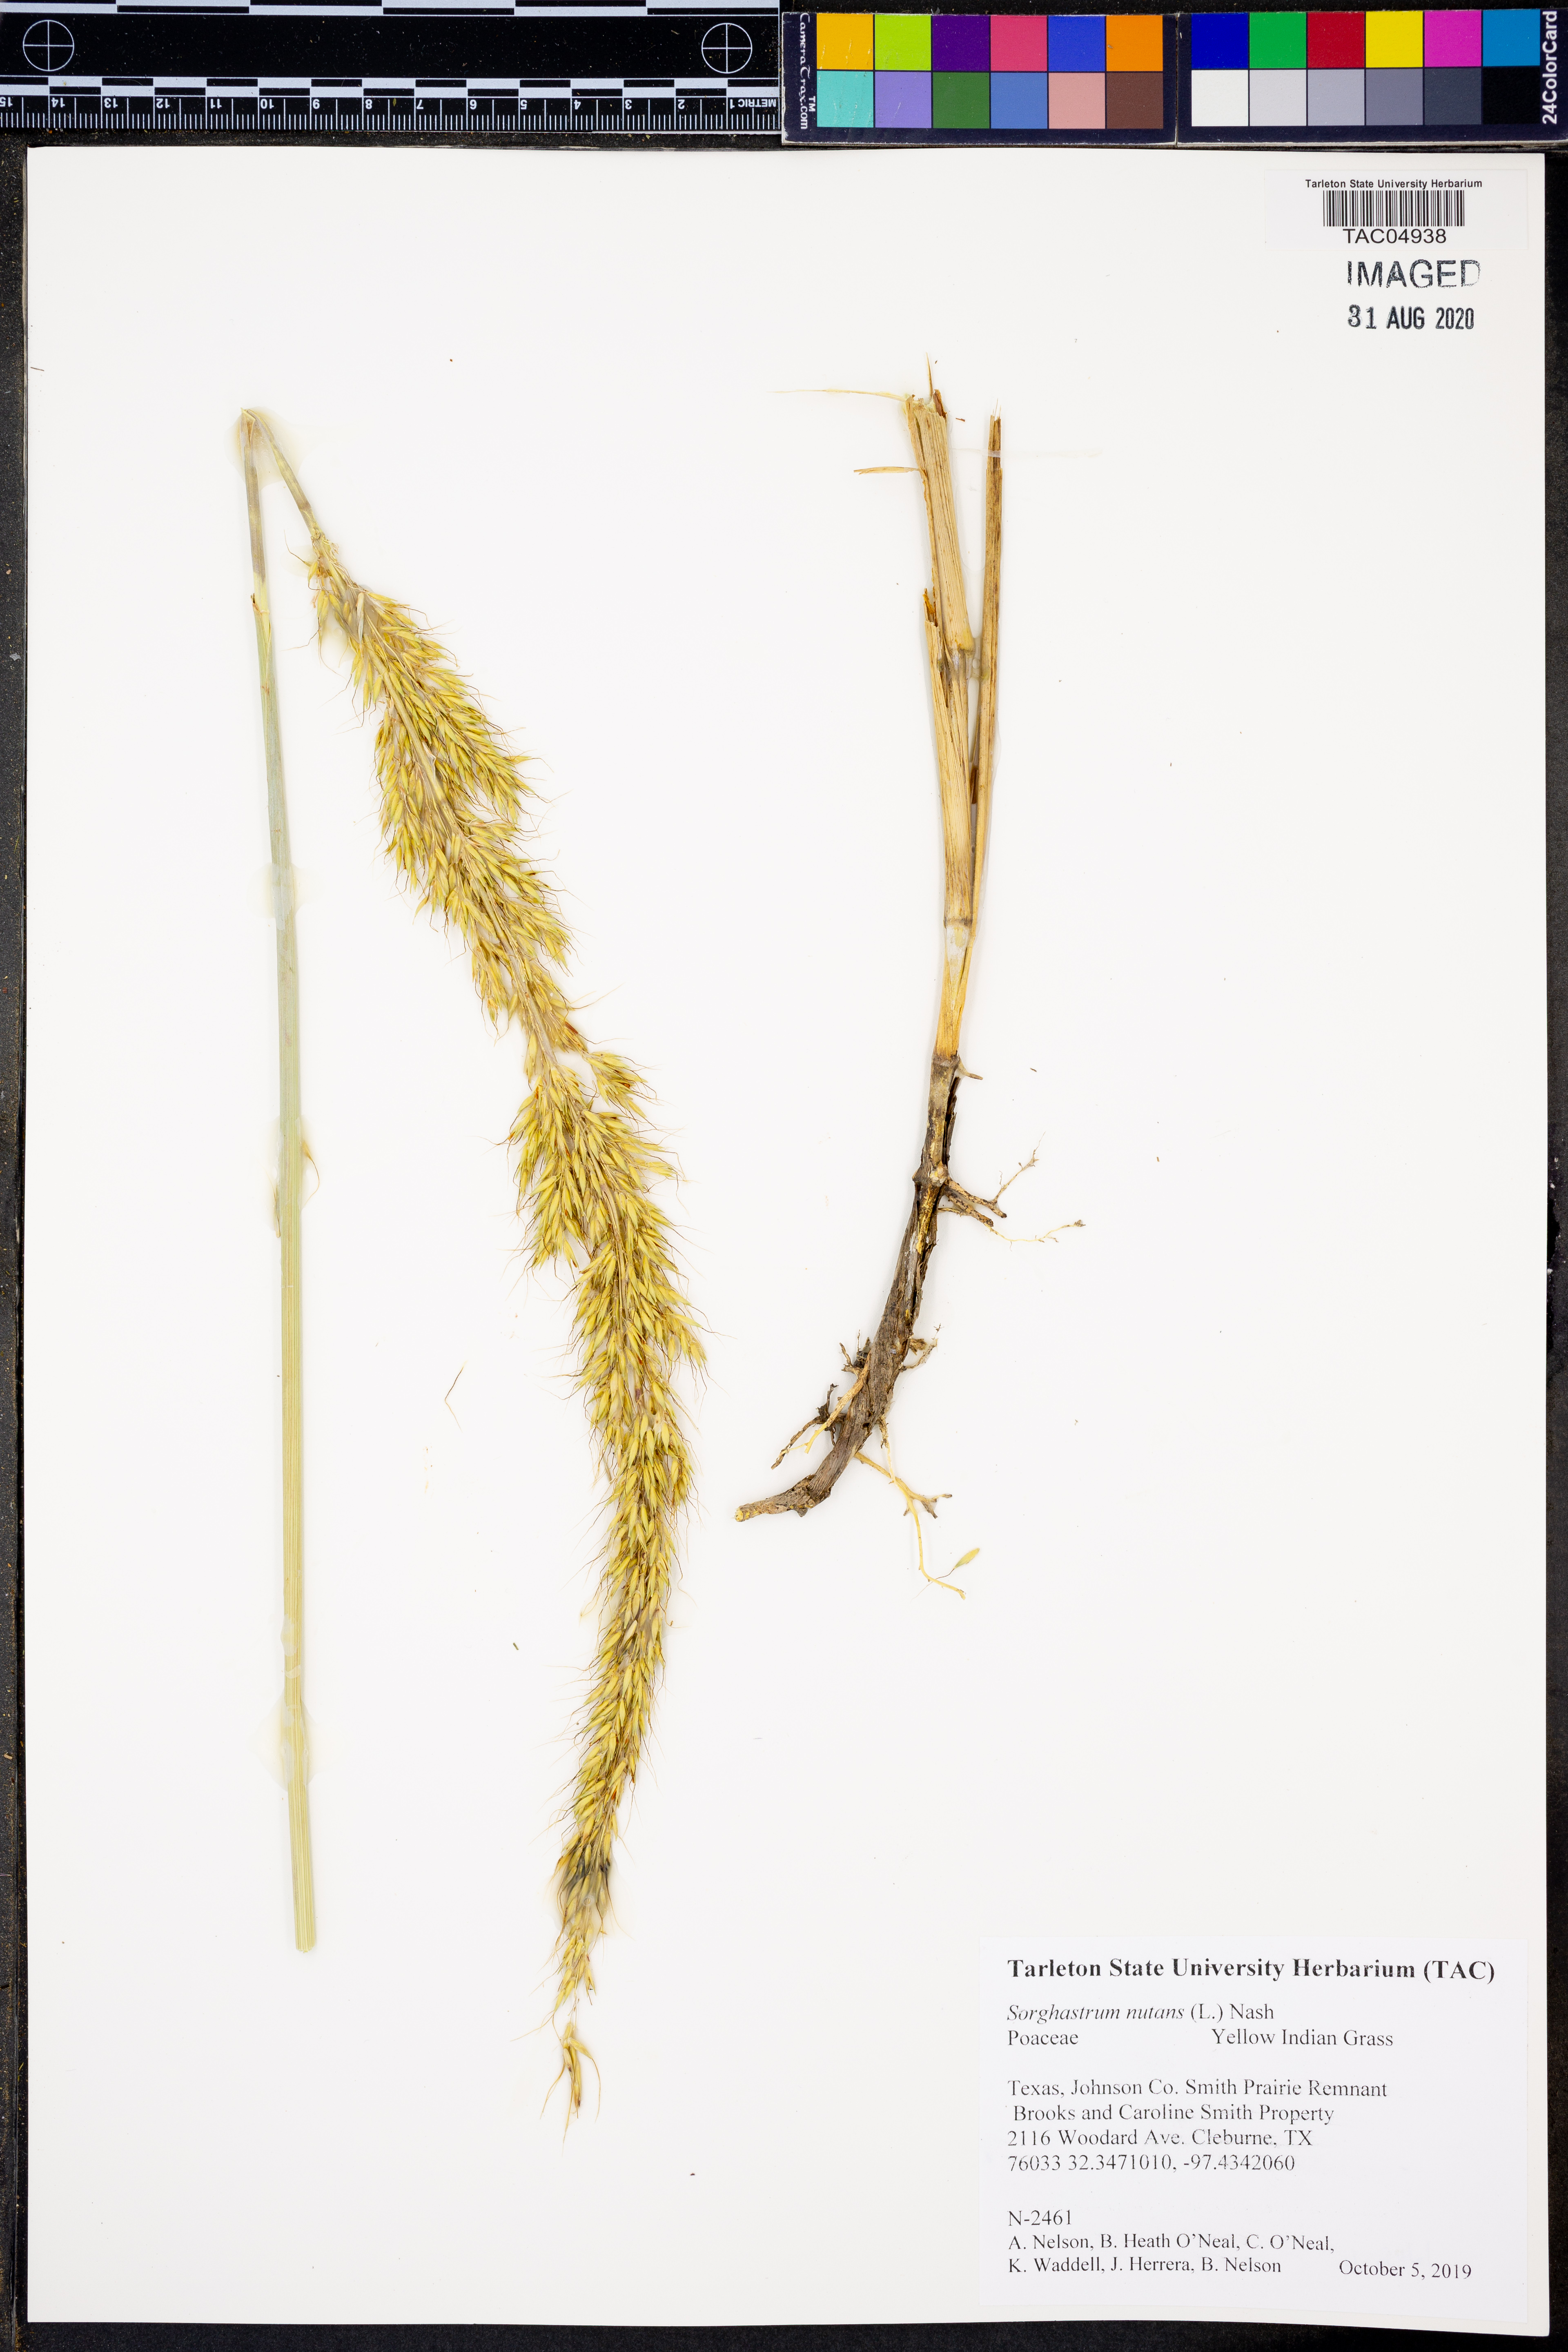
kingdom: Plantae
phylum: Tracheophyta
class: Liliopsida
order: Poales
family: Poaceae
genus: Sorghastrum
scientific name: Sorghastrum nutans
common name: Indian grass
